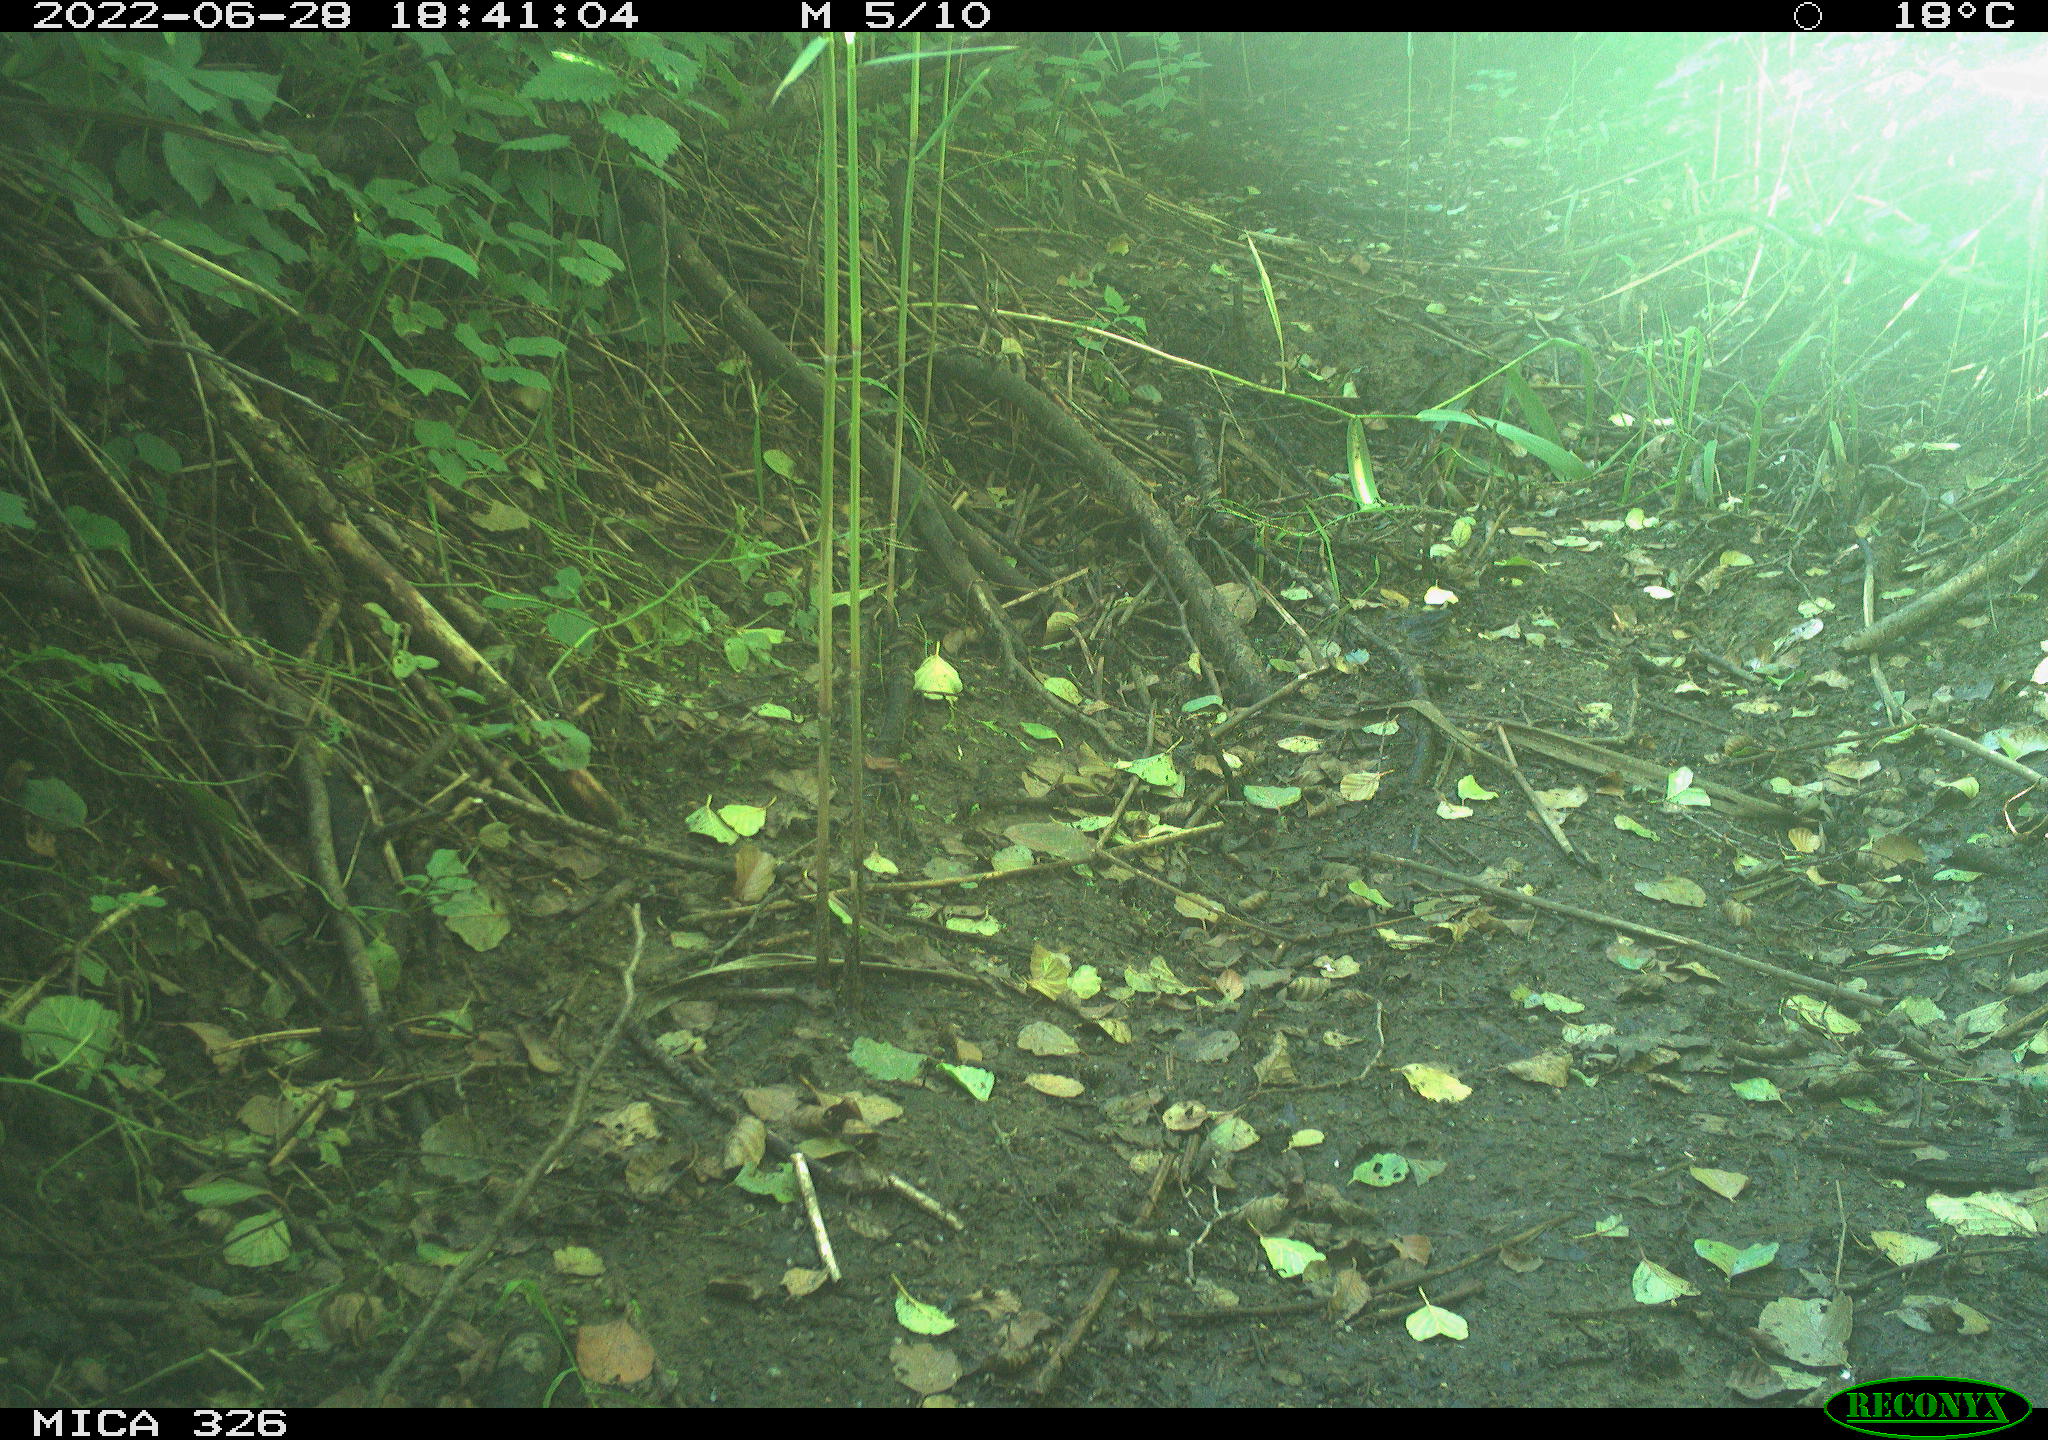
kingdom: Animalia
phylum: Chordata
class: Aves
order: Passeriformes
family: Turdidae
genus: Turdus
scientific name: Turdus
